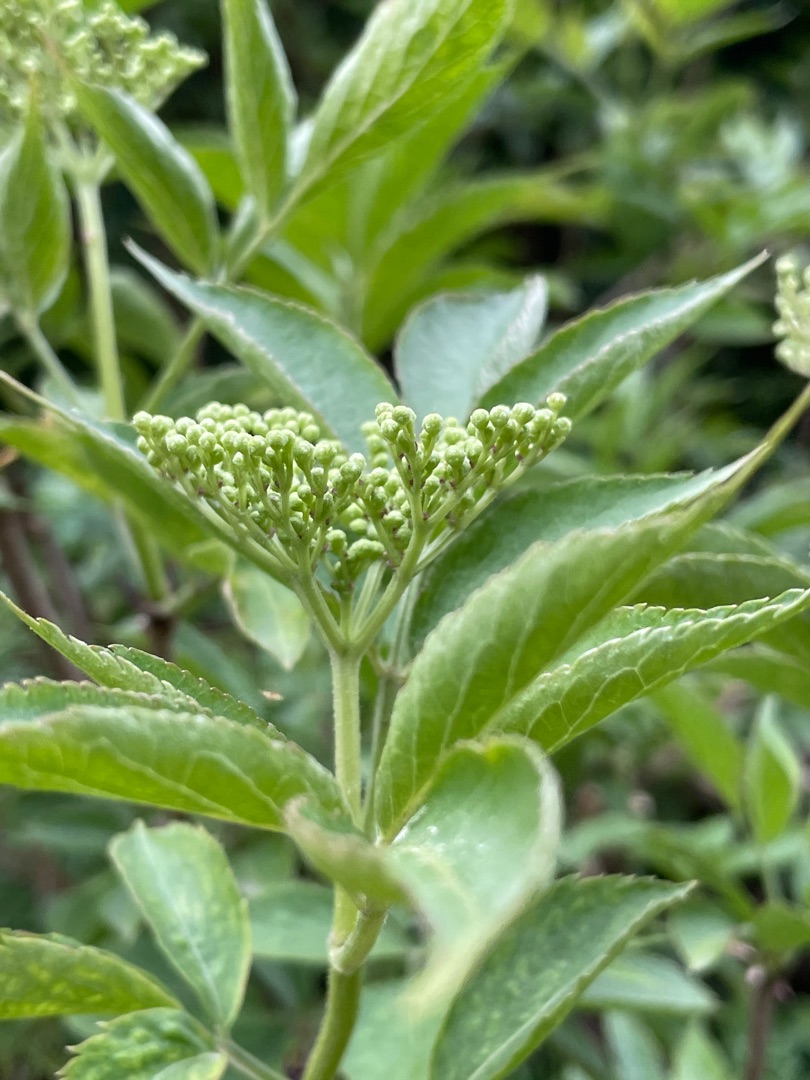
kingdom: Plantae
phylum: Tracheophyta
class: Magnoliopsida
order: Dipsacales
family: Viburnaceae
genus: Sambucus
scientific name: Sambucus nigra
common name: Almindelig hyld
